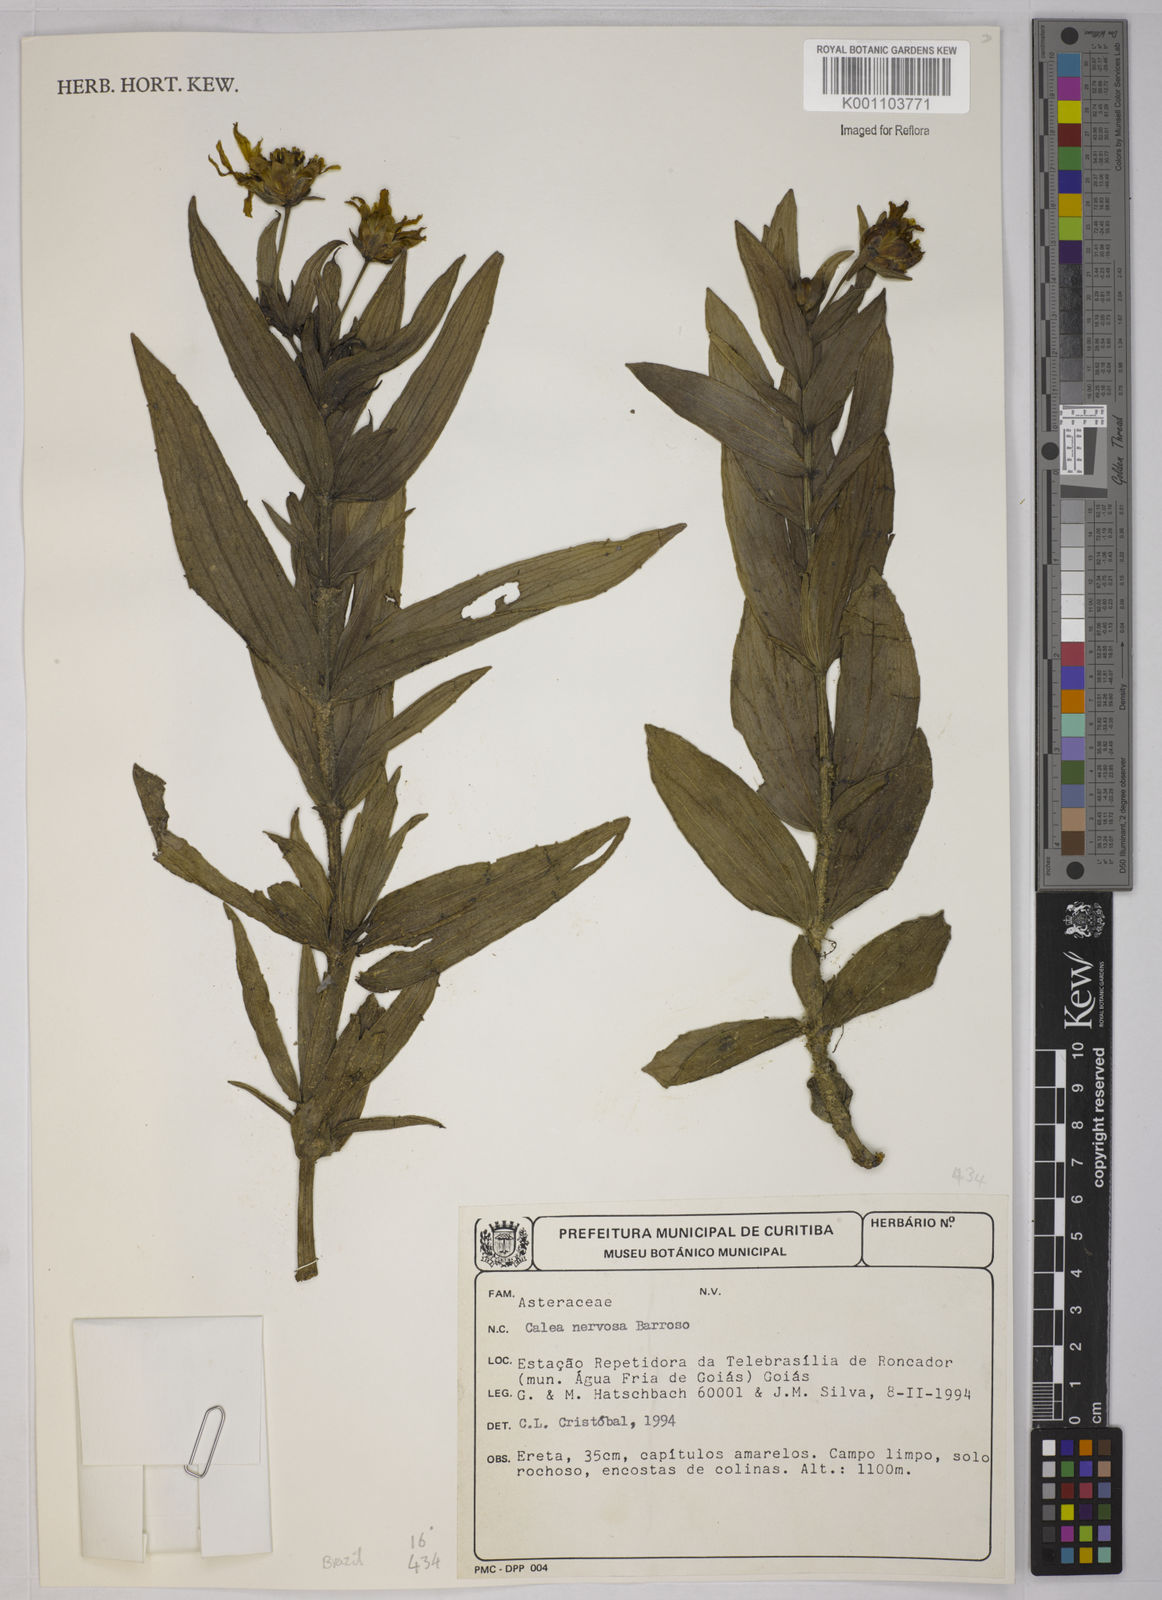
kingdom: Plantae
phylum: Tracheophyta
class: Magnoliopsida
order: Asterales
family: Asteraceae
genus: Calea
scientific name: Calea nervosa
